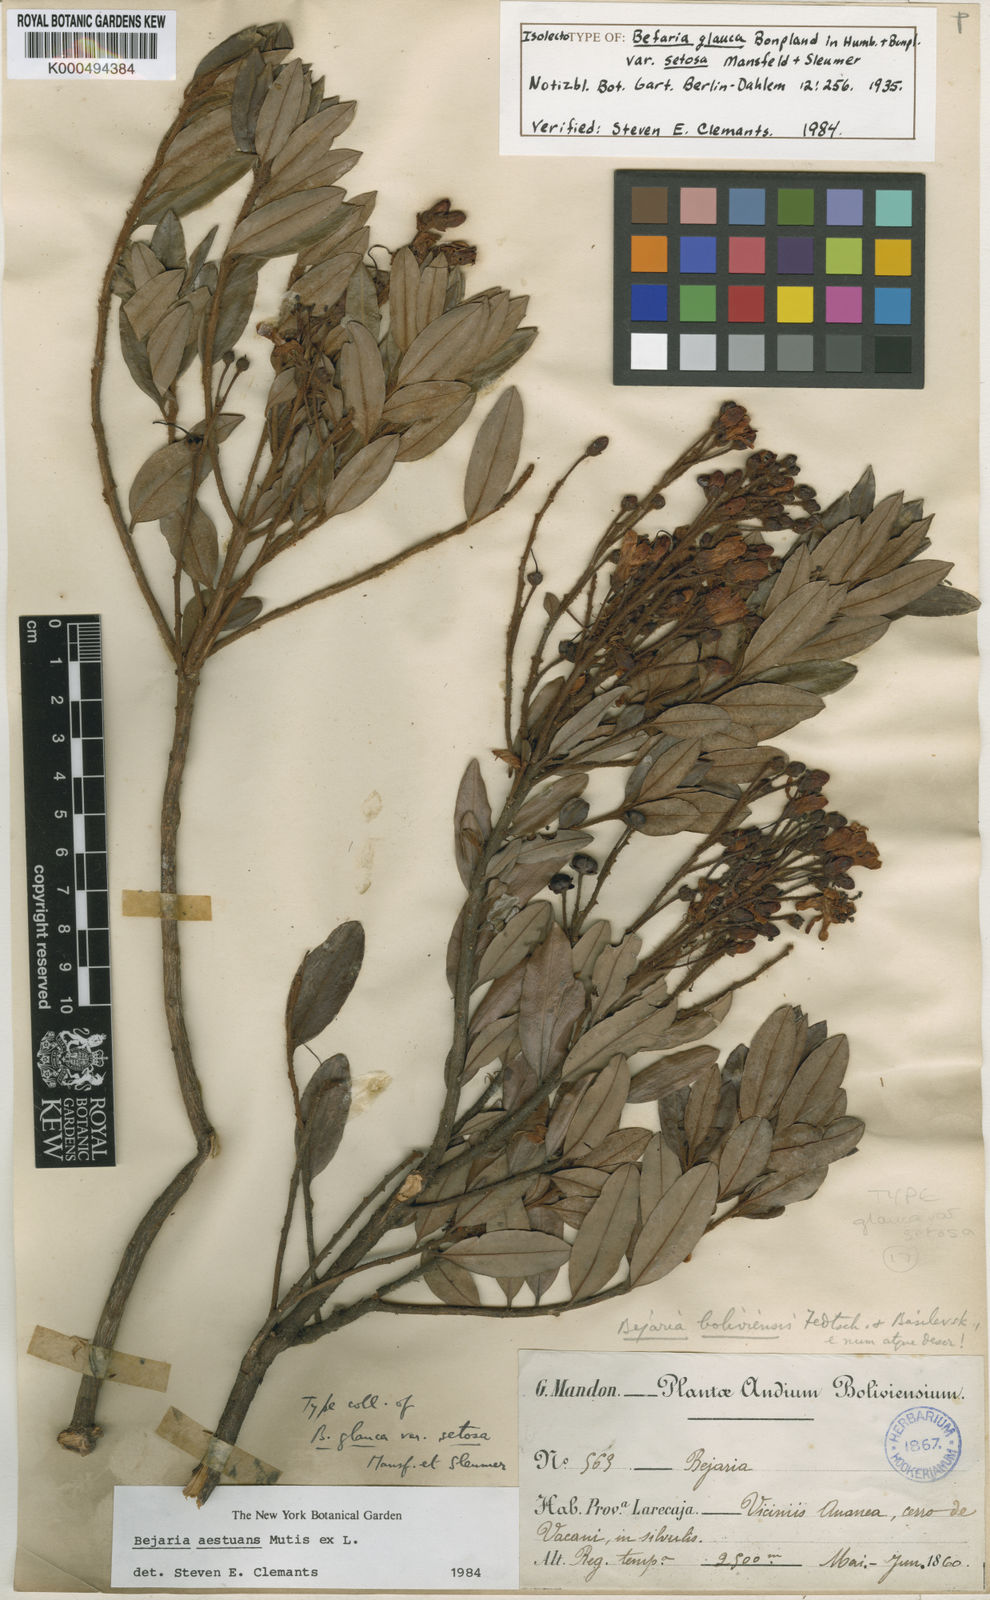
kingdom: Plantae
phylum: Tracheophyta
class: Magnoliopsida
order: Ericales
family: Ericaceae
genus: Bejaria
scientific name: Bejaria
